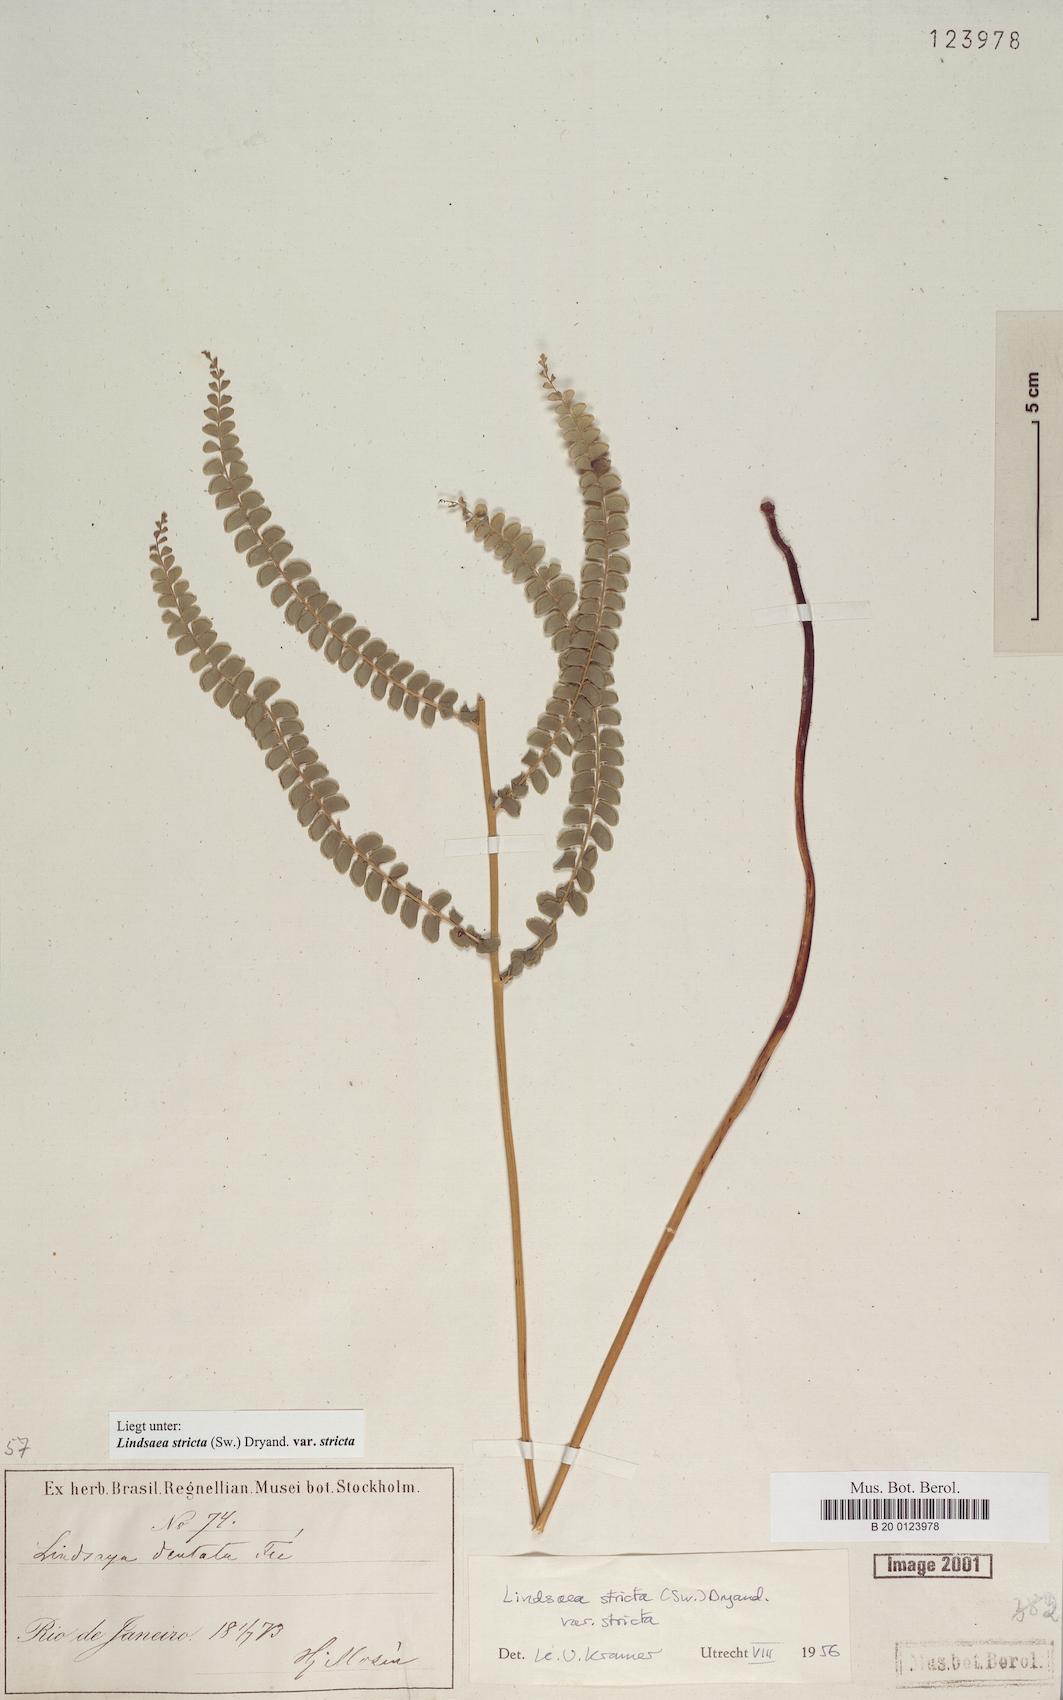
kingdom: Plantae
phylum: Tracheophyta
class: Polypodiopsida
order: Polypodiales
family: Lindsaeaceae
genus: Lindsaea
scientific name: Lindsaea stricta
